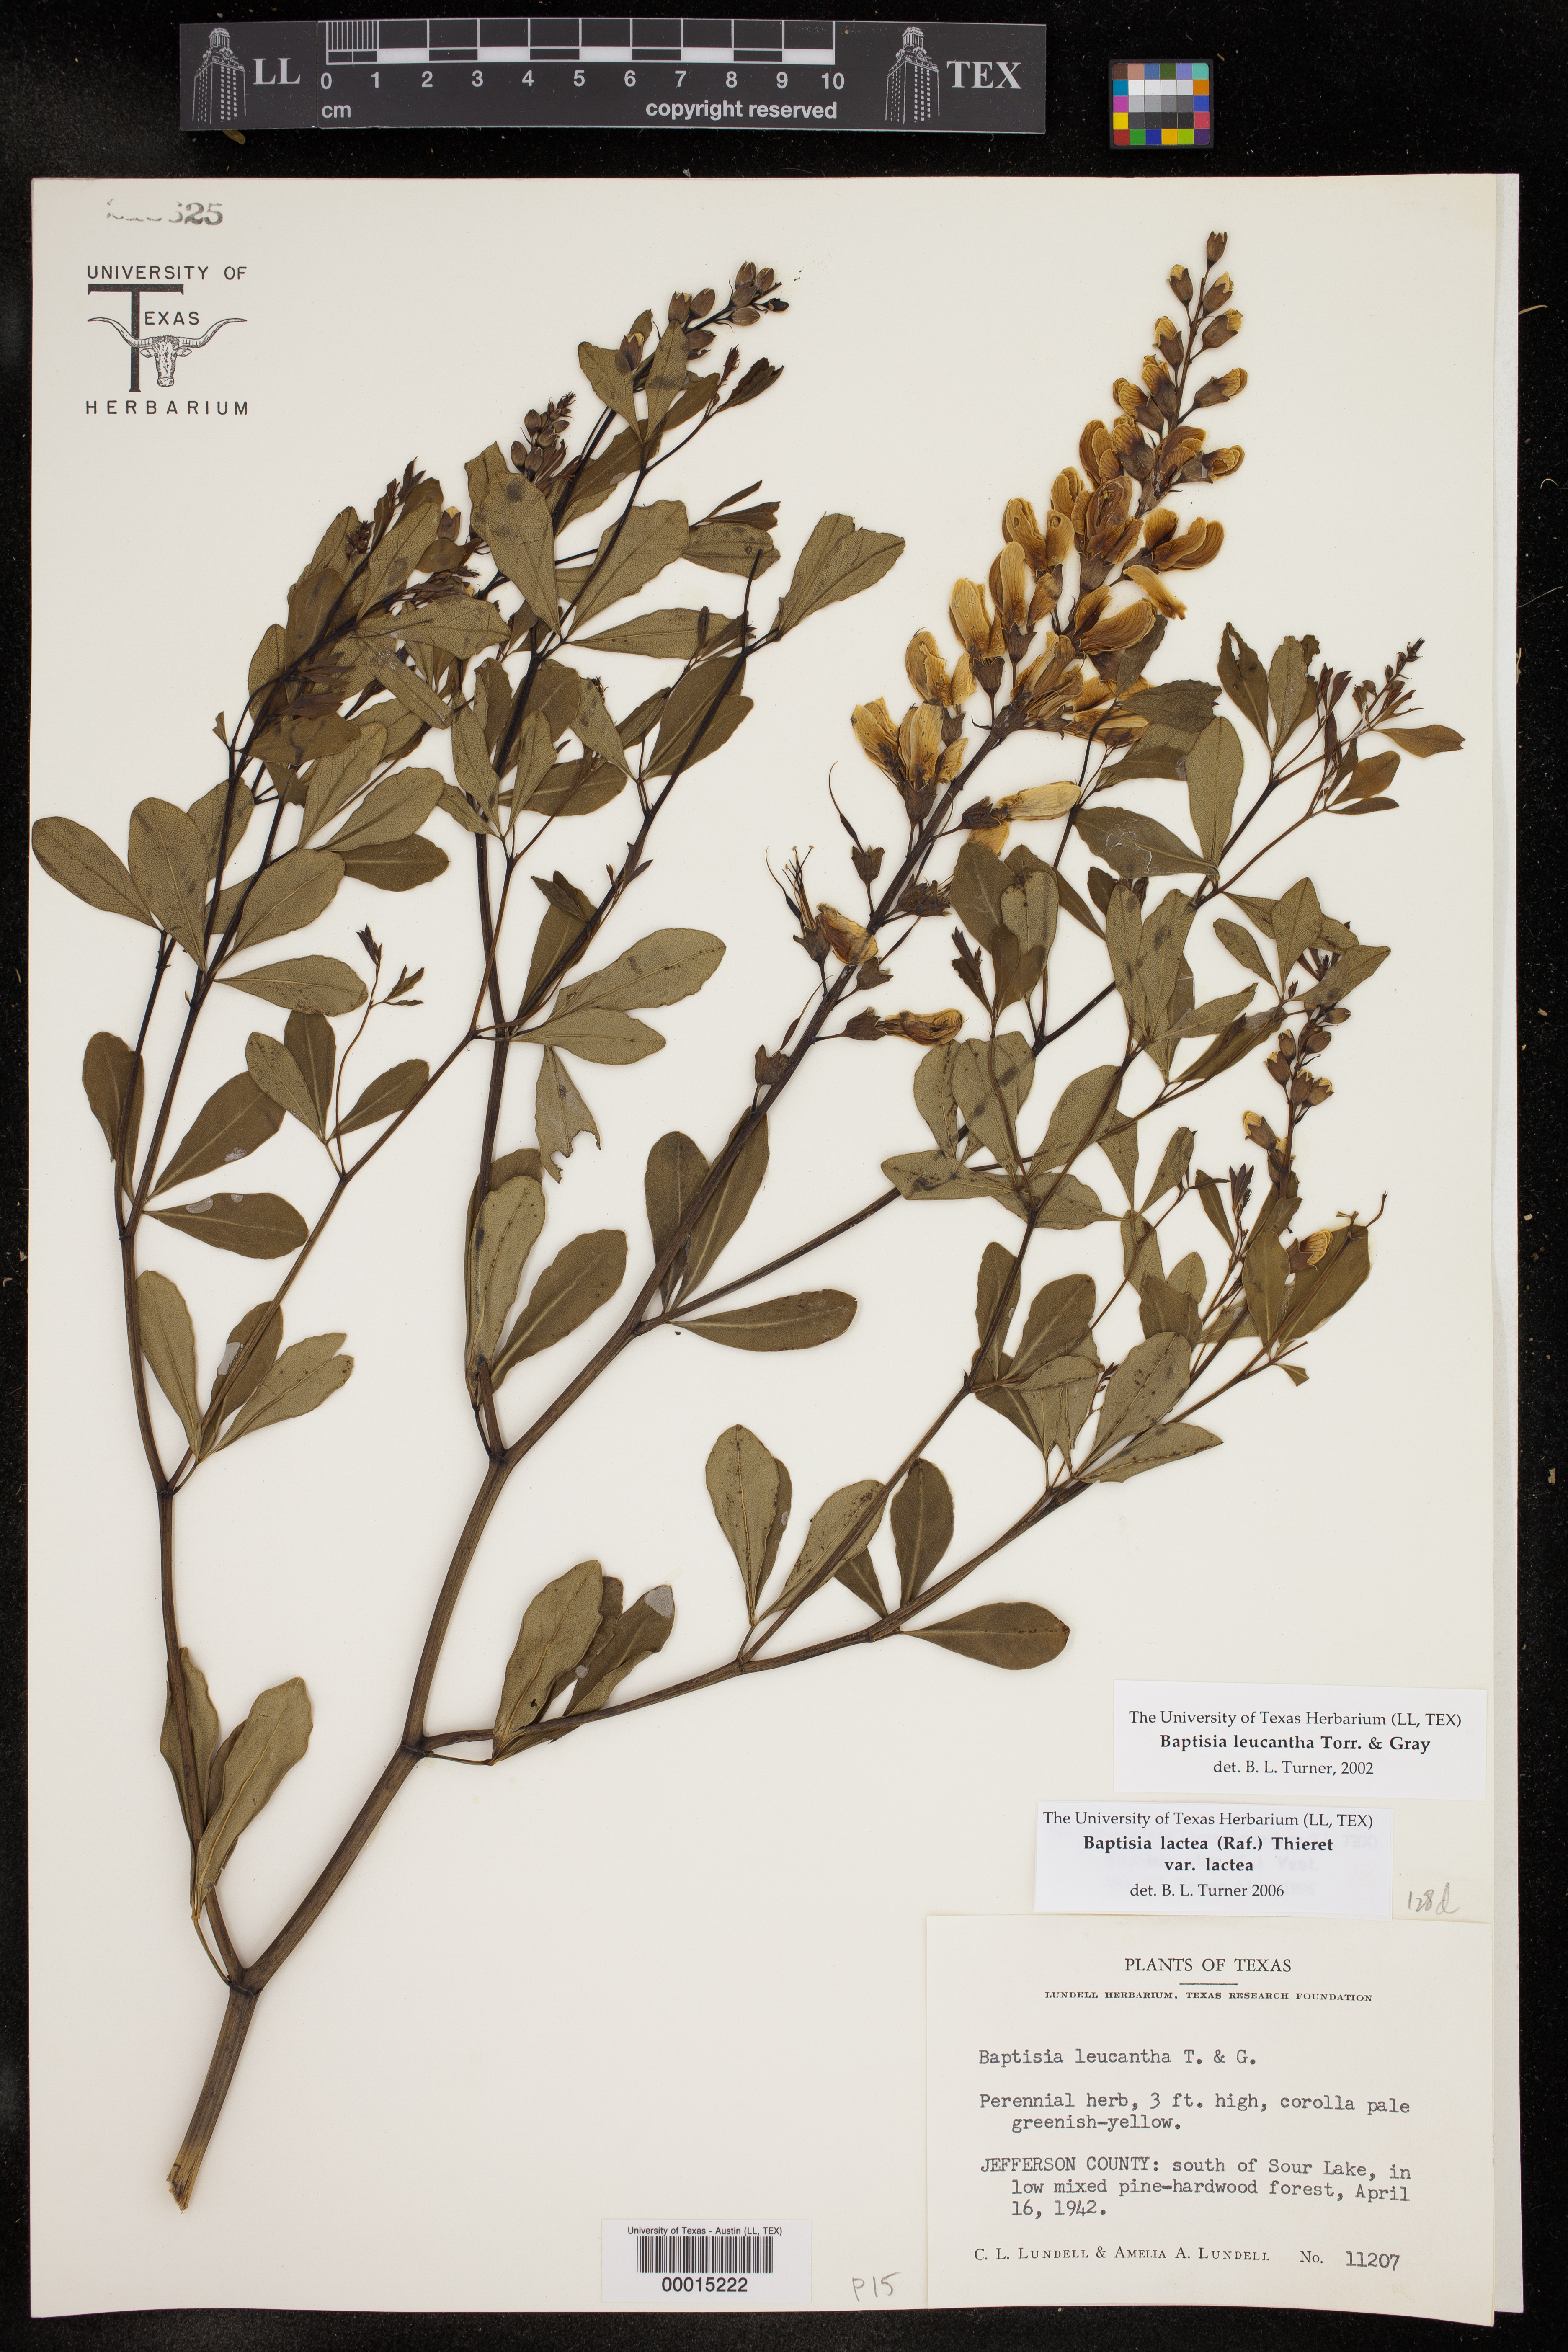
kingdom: Plantae
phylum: Tracheophyta
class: Magnoliopsida
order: Fabales
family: Fabaceae
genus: Baptisia
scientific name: Baptisia alba
